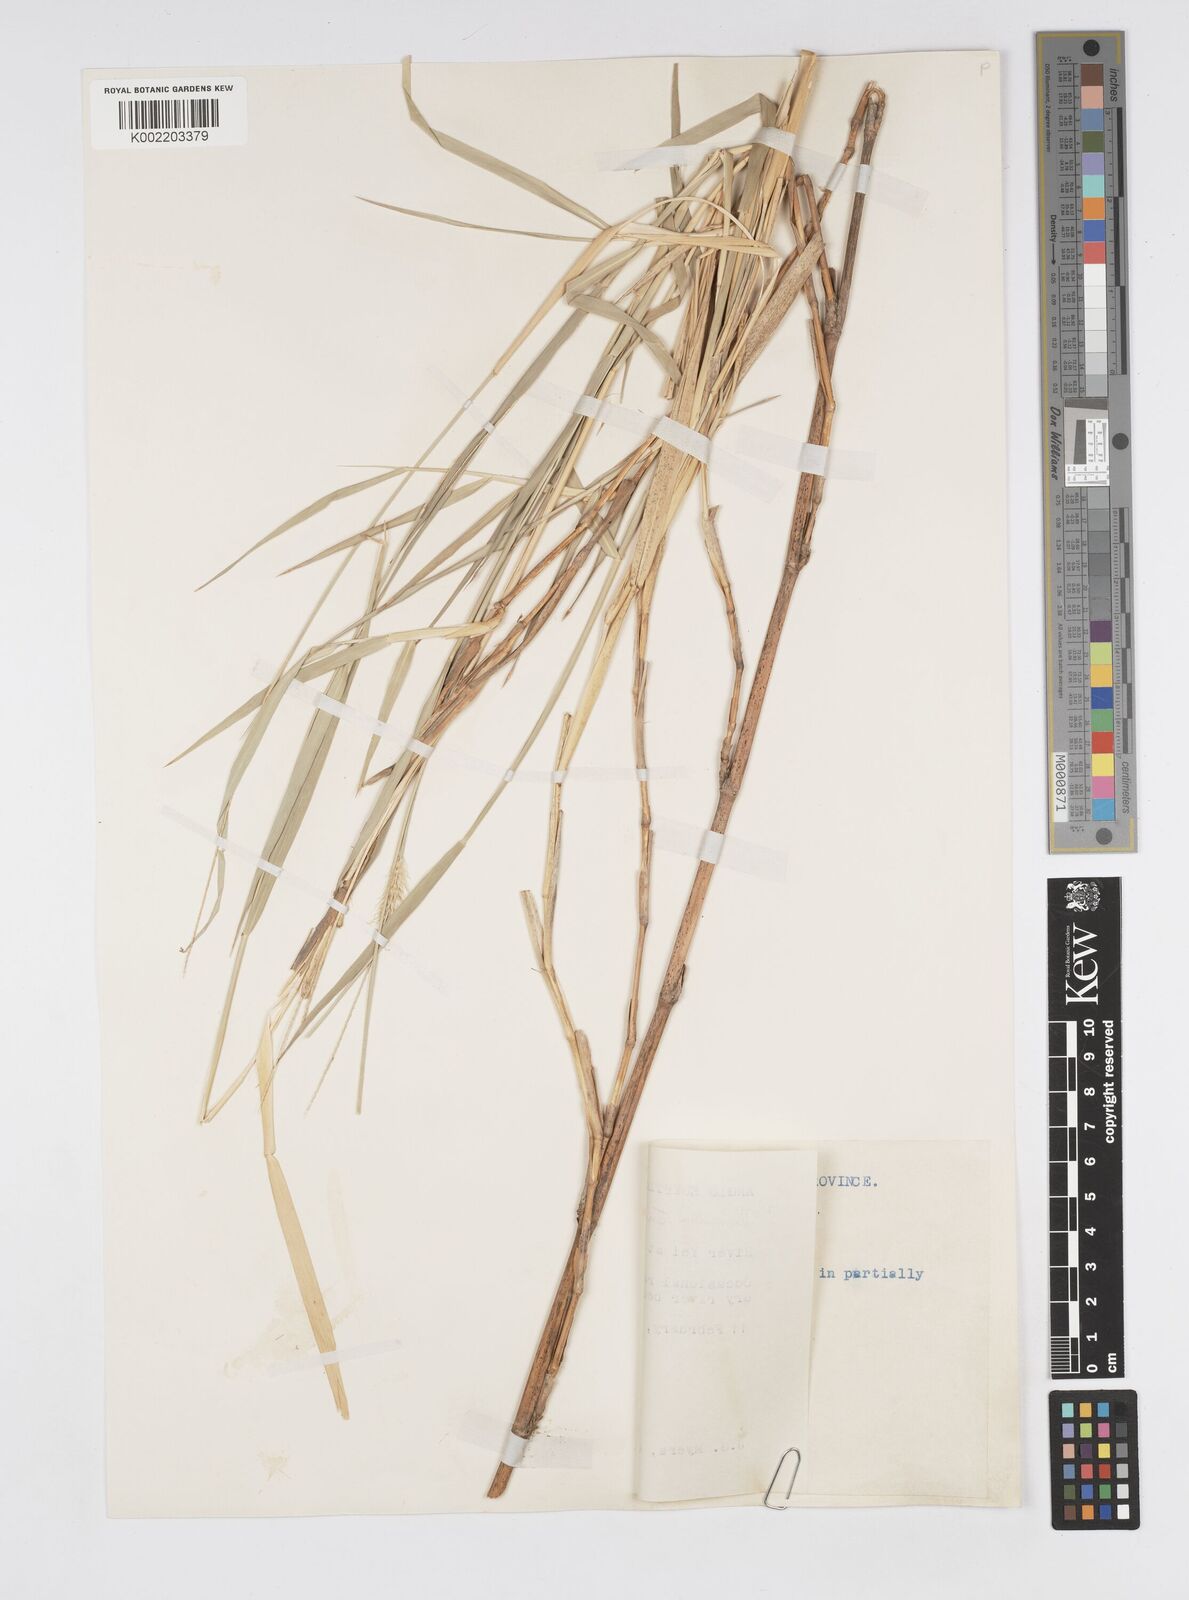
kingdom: Plantae
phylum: Tracheophyta
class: Liliopsida
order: Poales
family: Poaceae
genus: Cenchrus
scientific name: Cenchrus caudatus
